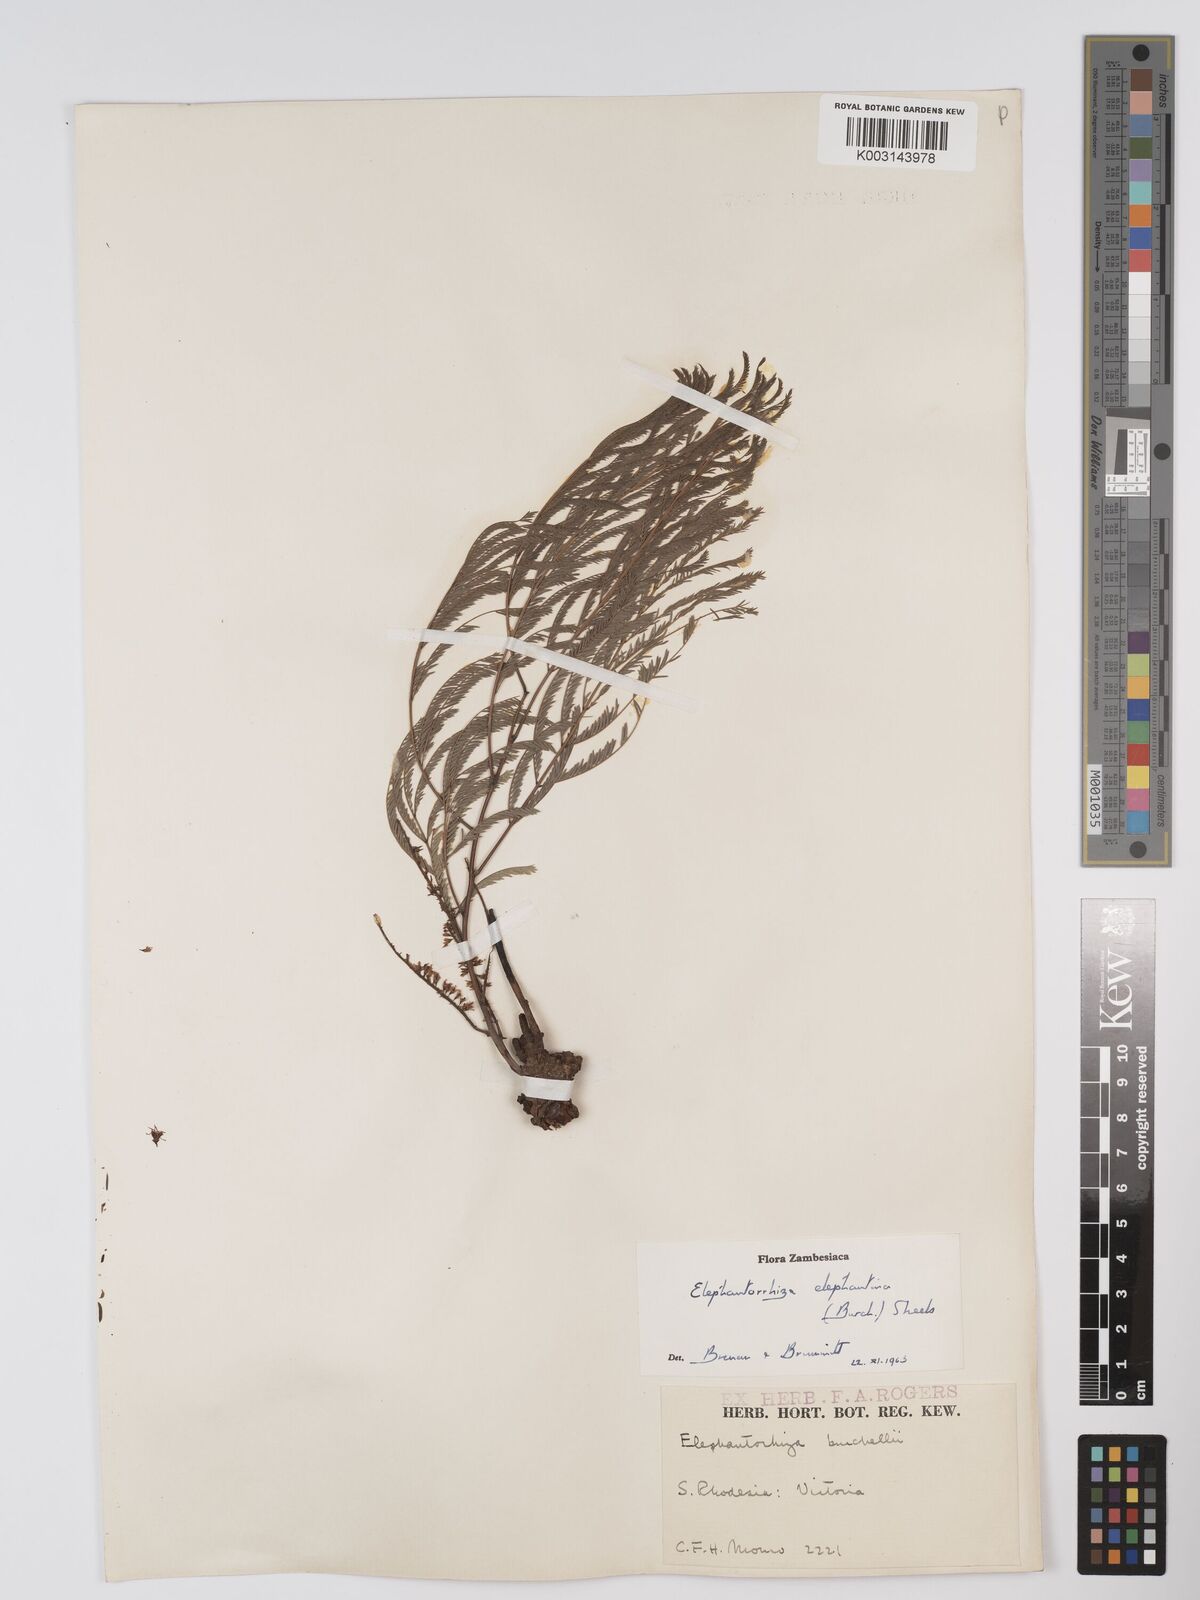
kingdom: Plantae
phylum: Tracheophyta
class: Magnoliopsida
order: Fabales
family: Fabaceae
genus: Elephantorrhiza
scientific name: Elephantorrhiza elephantina
